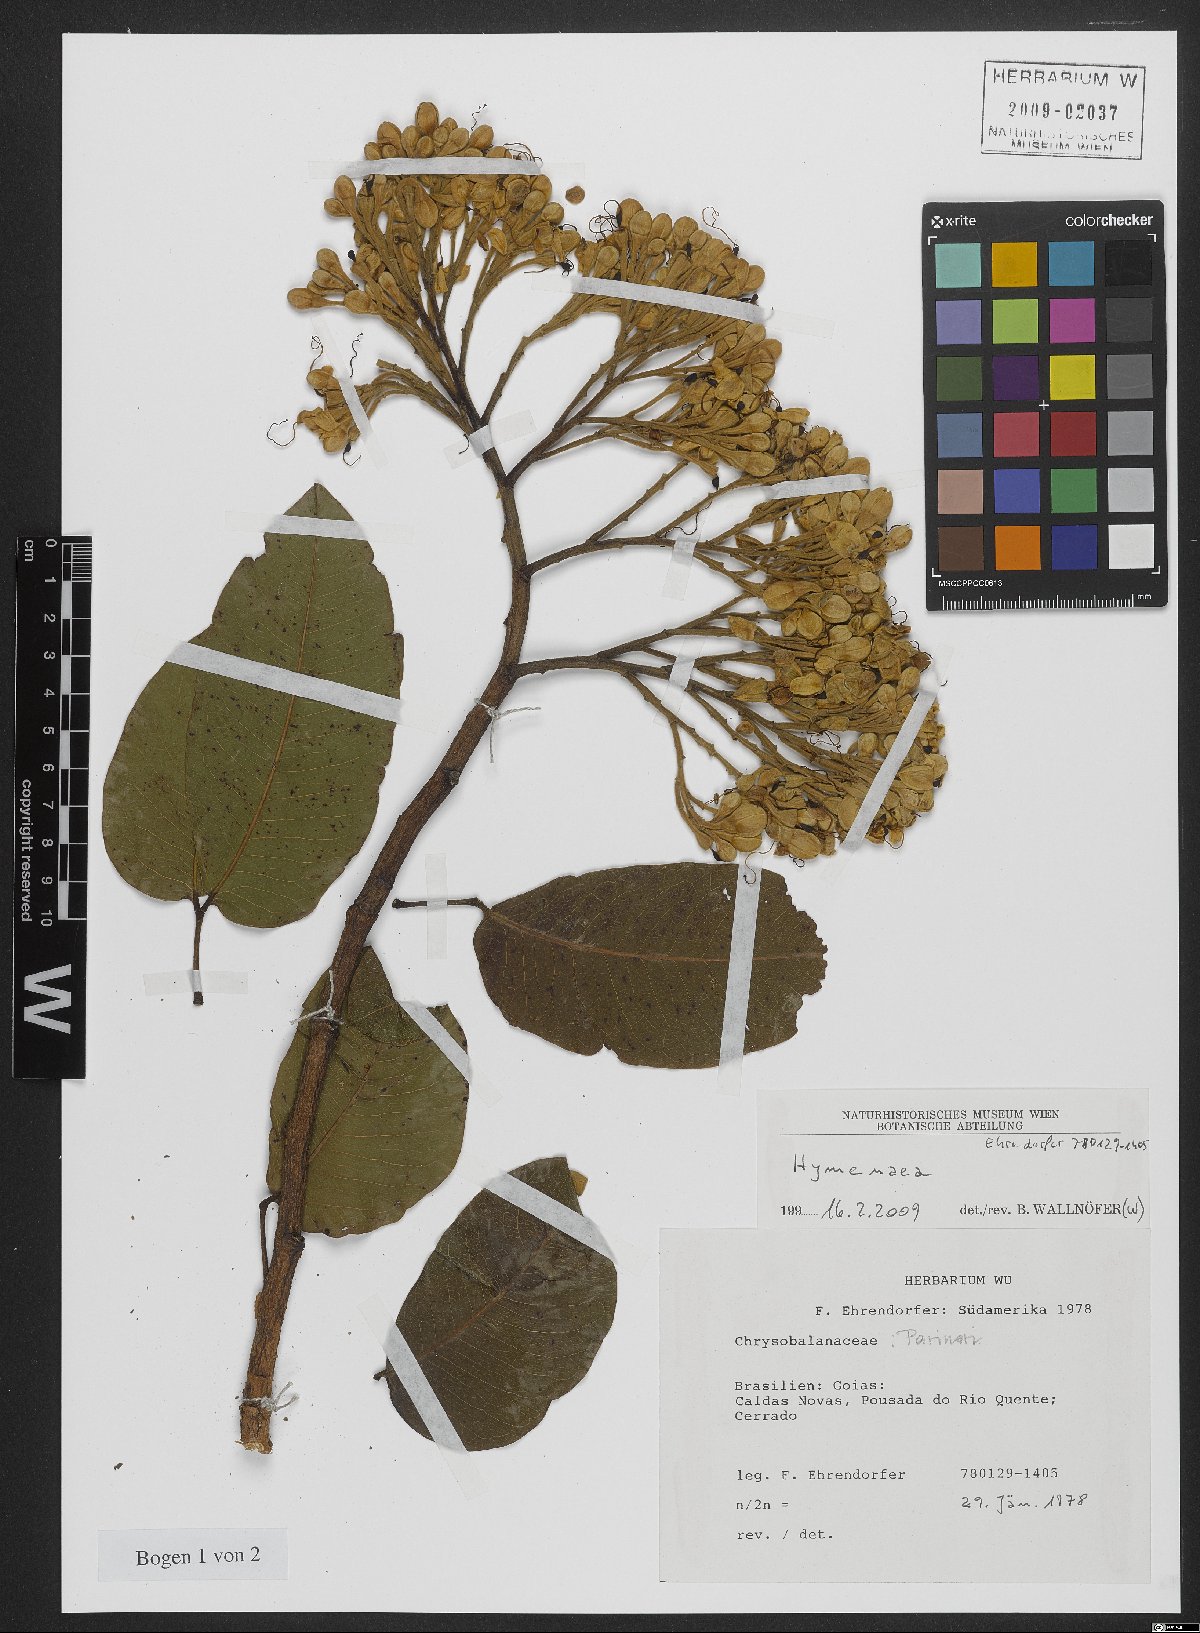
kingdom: Plantae
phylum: Tracheophyta
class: Magnoliopsida
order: Fabales
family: Fabaceae
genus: Hymenaea
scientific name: Hymenaea
